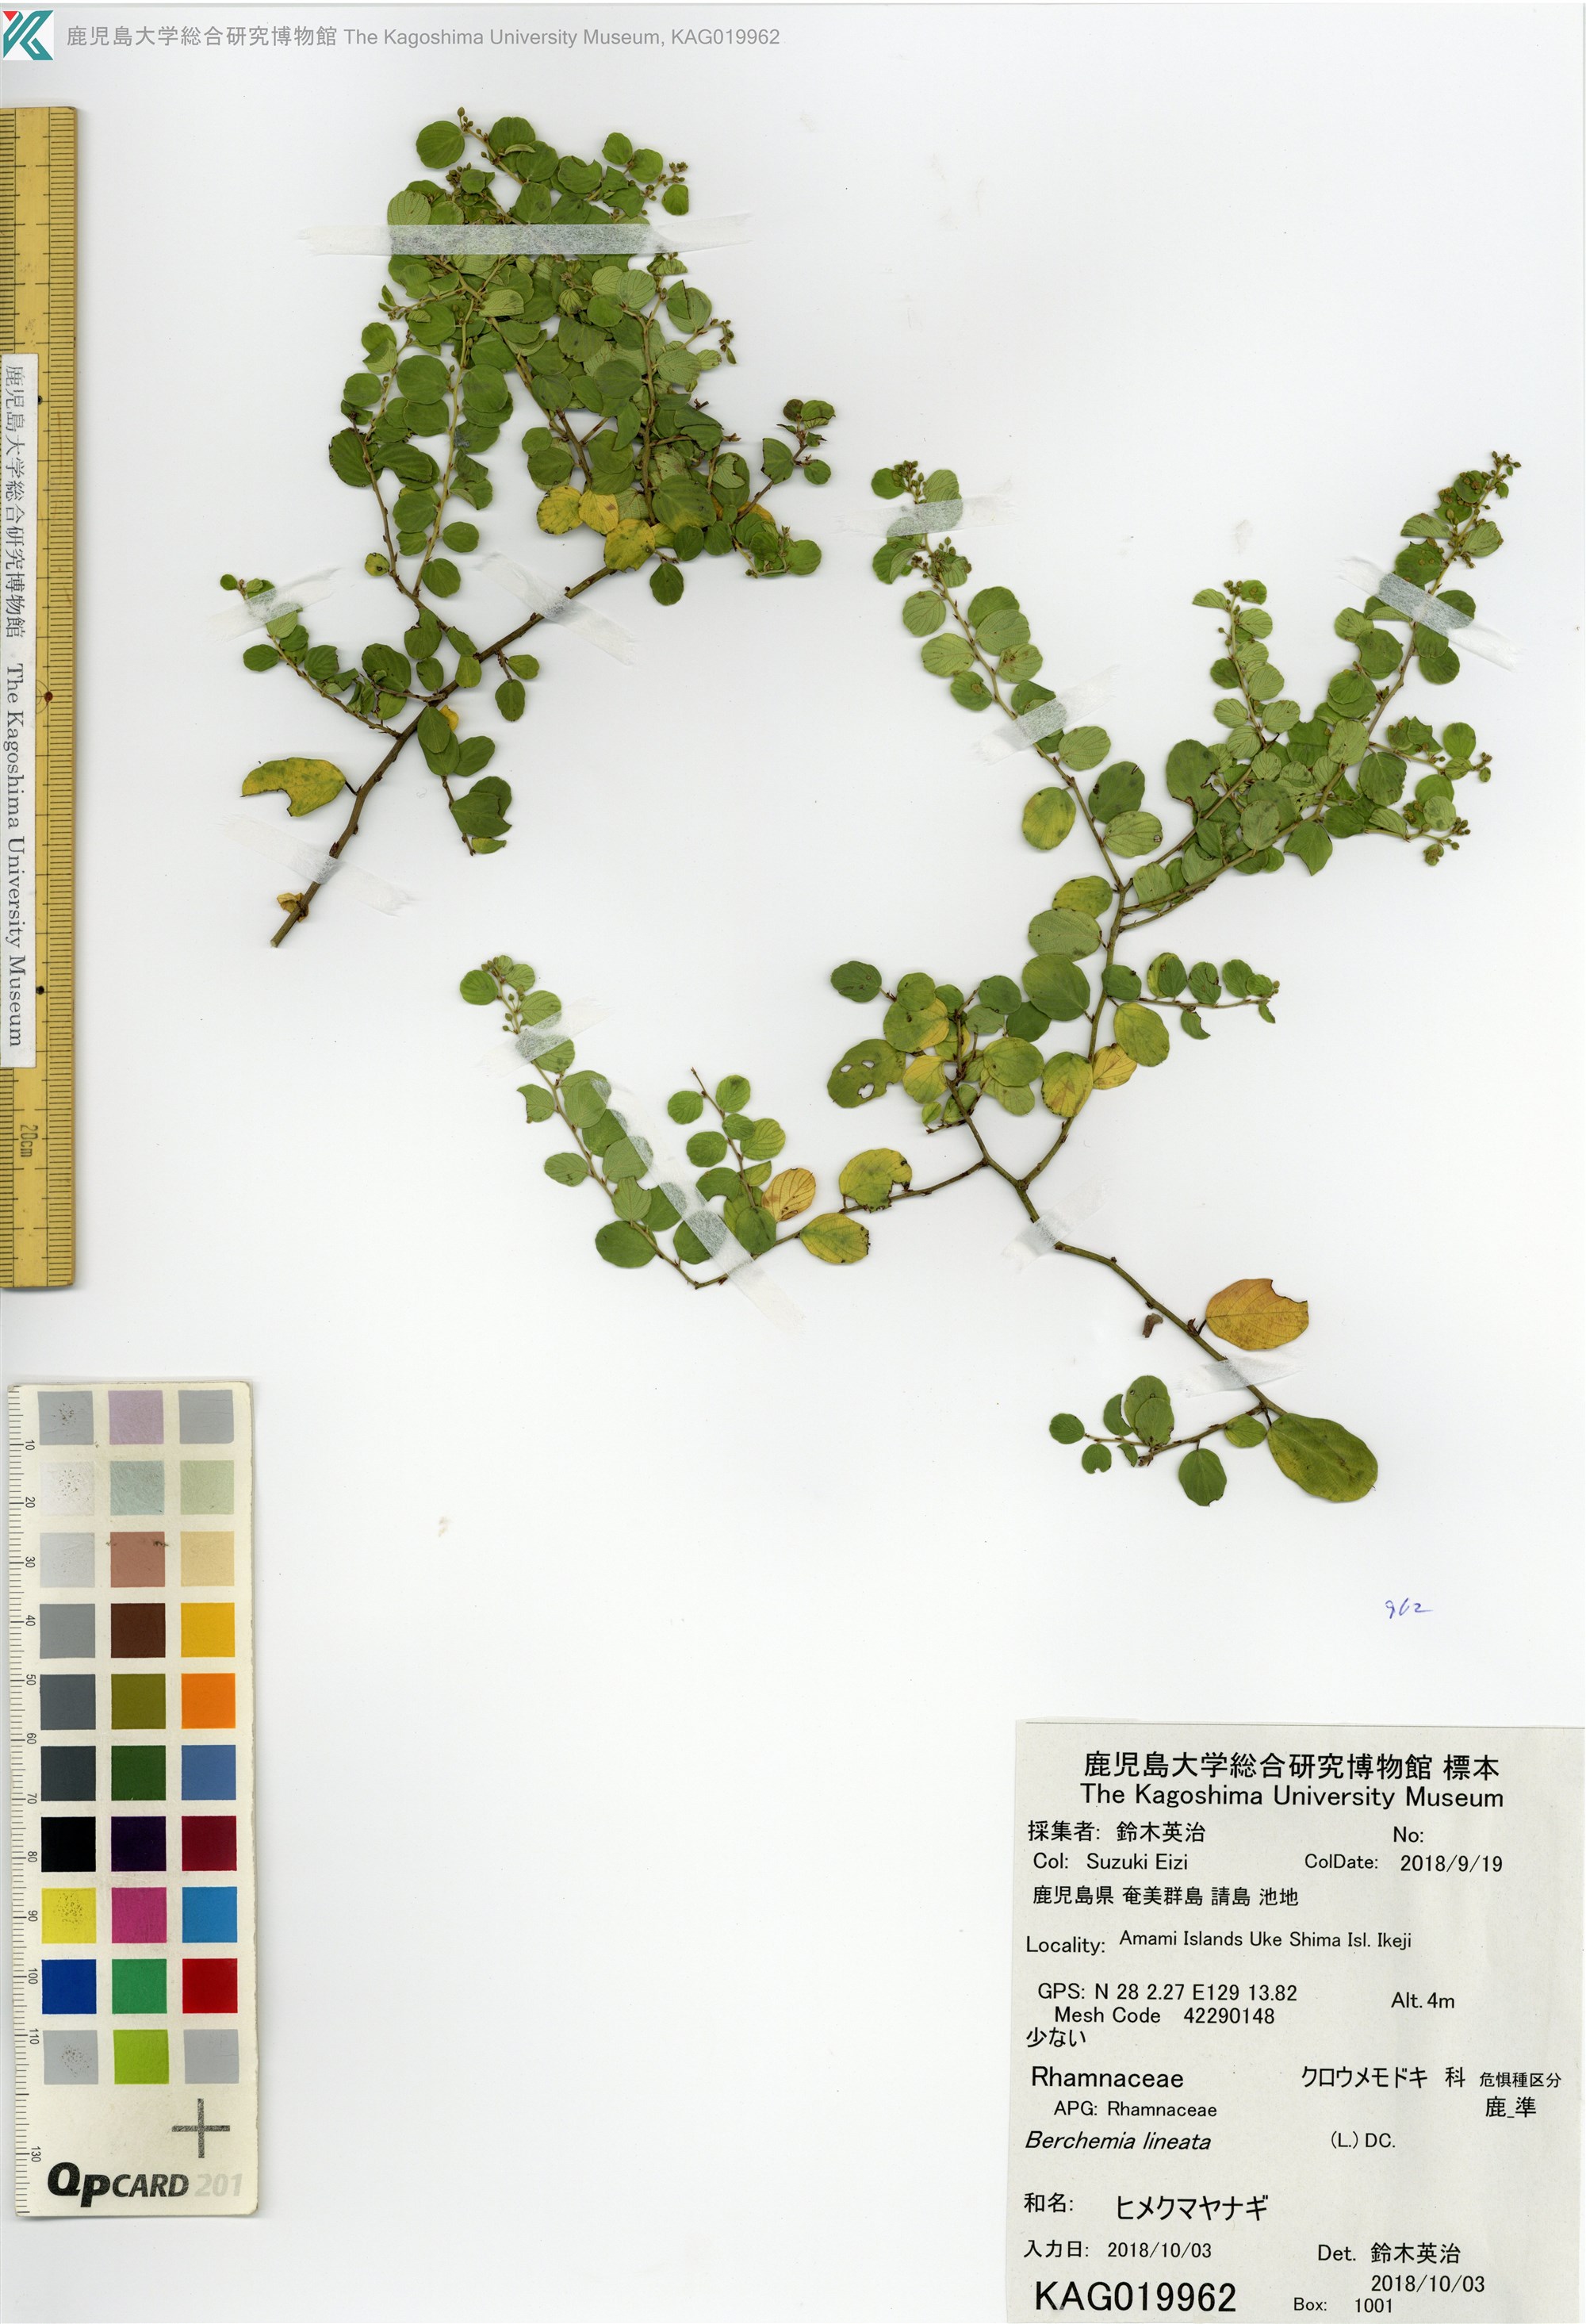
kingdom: Plantae
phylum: Tracheophyta
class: Magnoliopsida
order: Rosales
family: Rhamnaceae
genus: Berchemia
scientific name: Berchemia lineata
